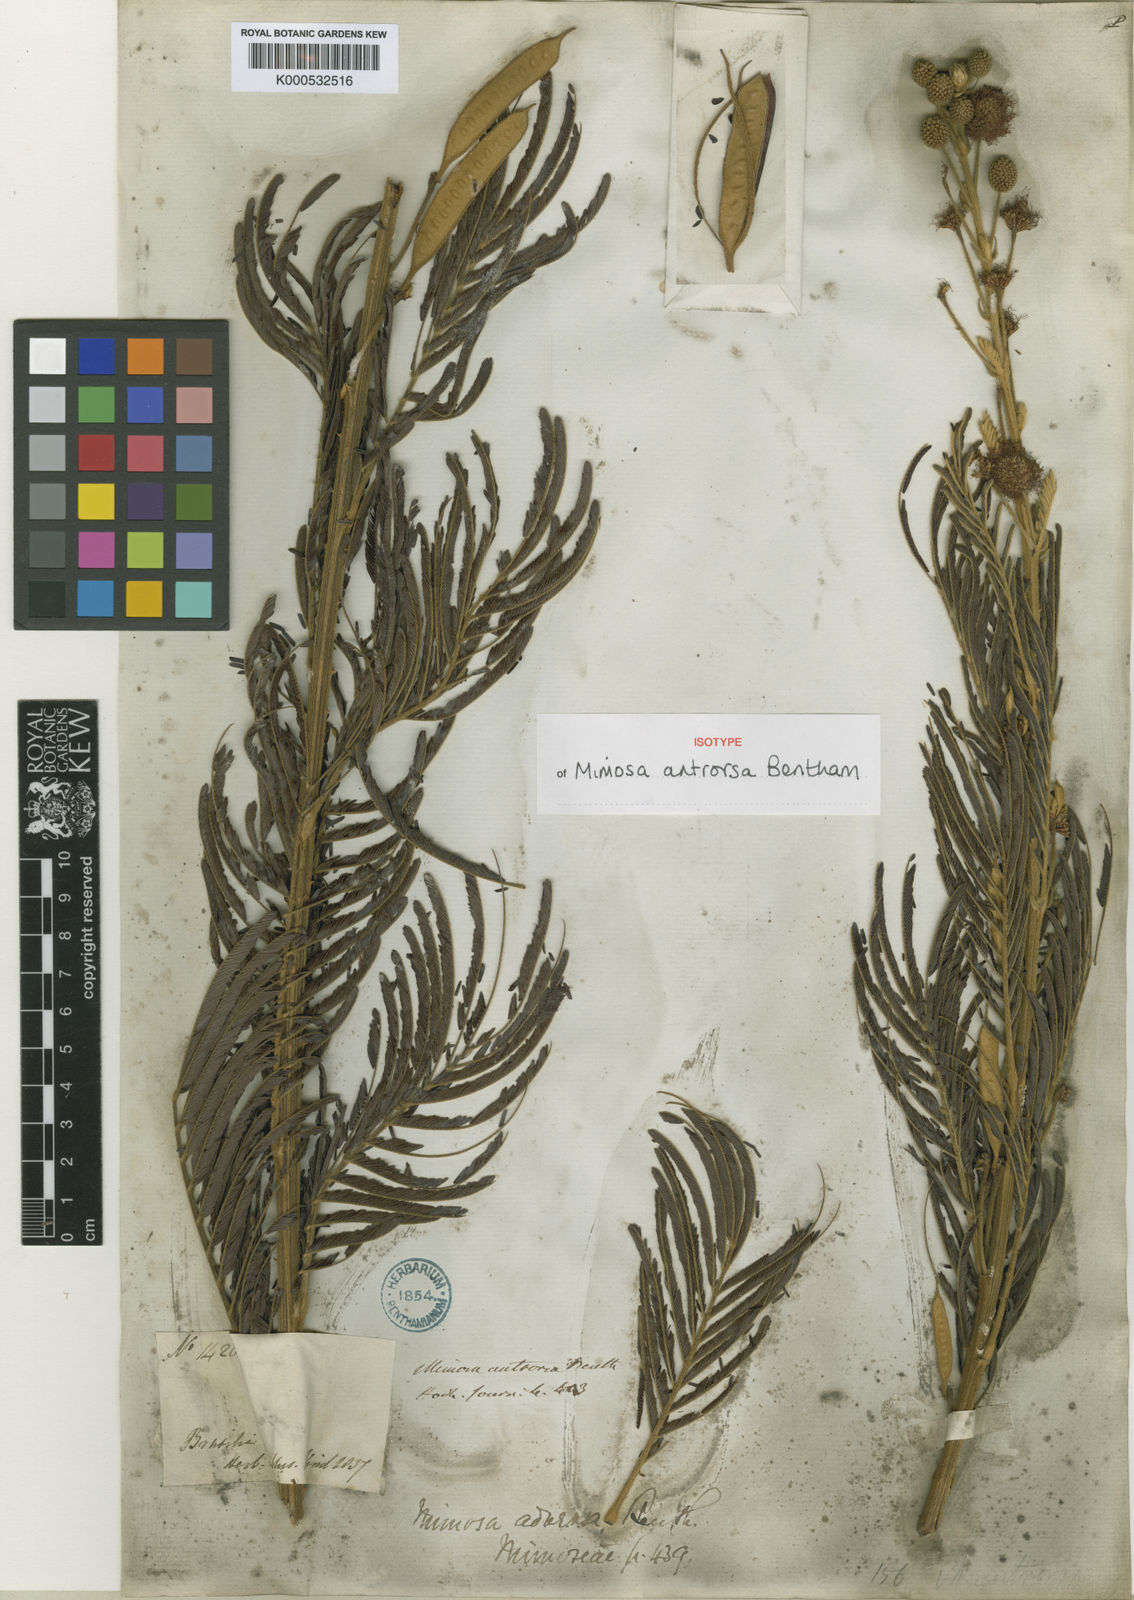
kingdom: Plantae
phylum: Tracheophyta
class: Magnoliopsida
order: Fabales
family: Fabaceae
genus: Mimosa
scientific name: Mimosa antrorsa
